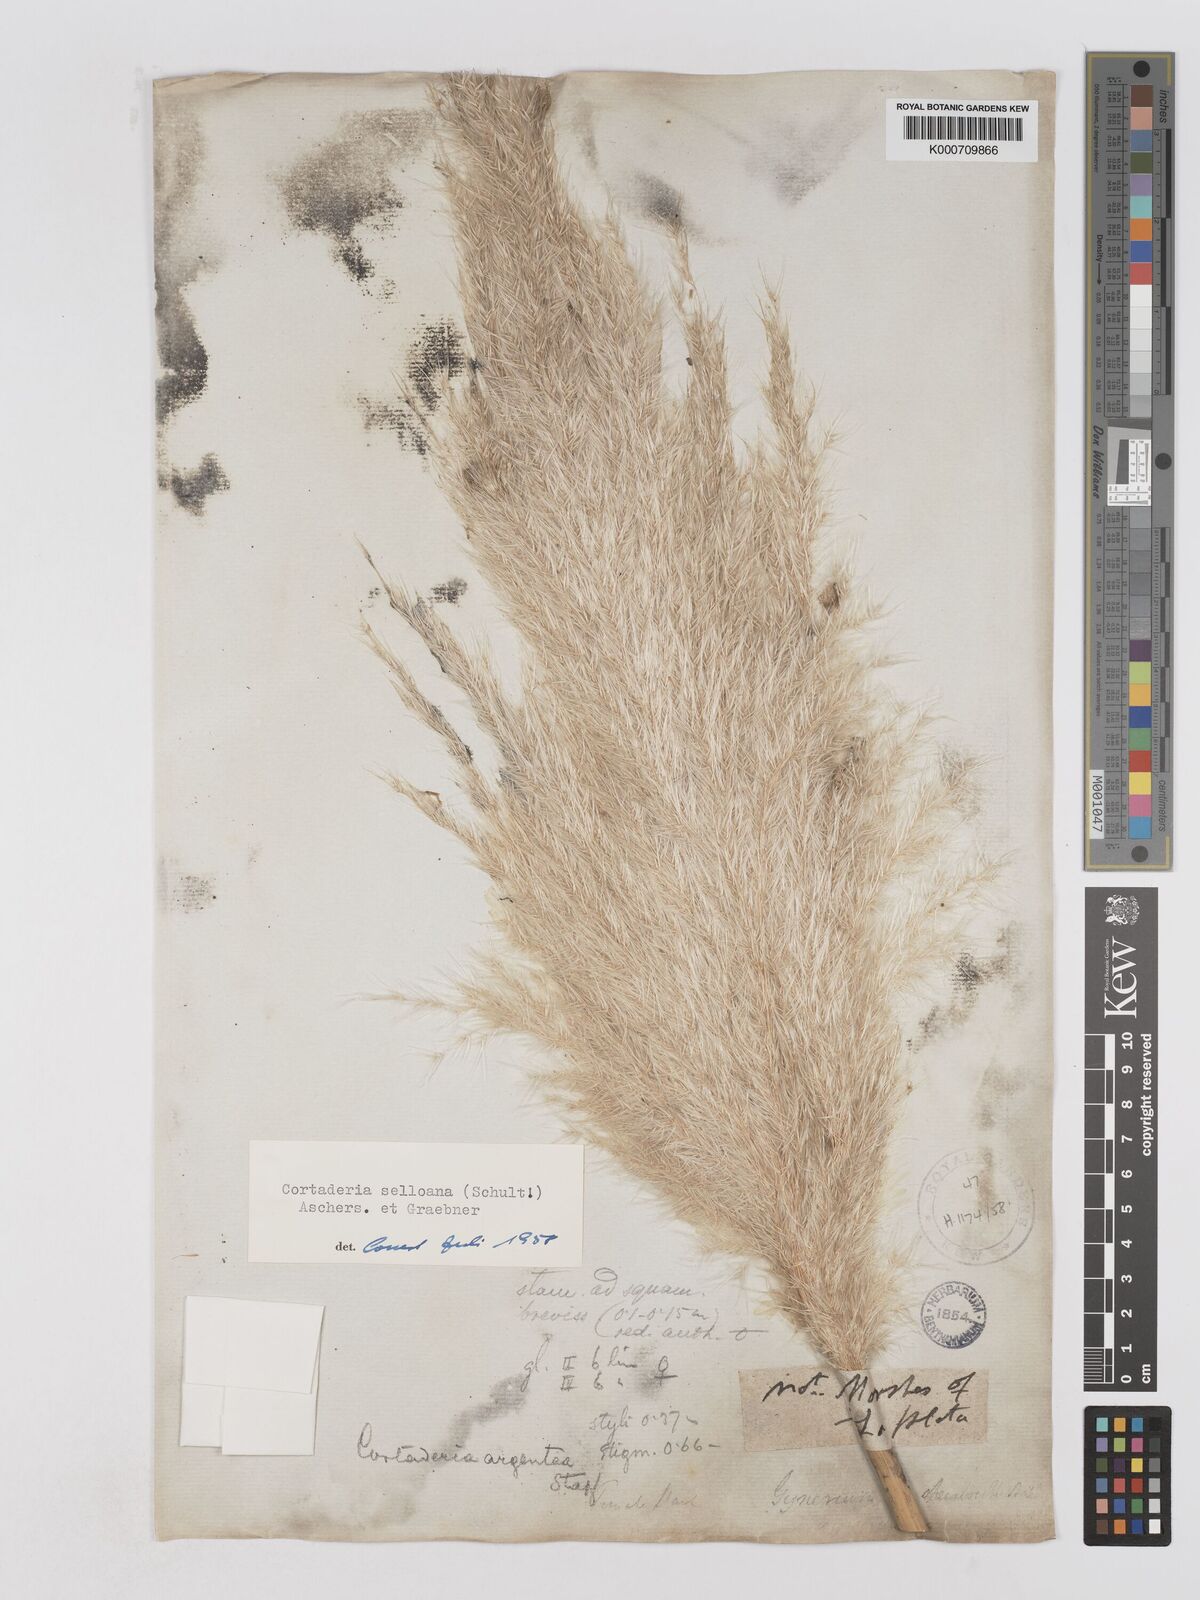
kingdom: Plantae
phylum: Tracheophyta
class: Liliopsida
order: Poales
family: Poaceae
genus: Cortaderia
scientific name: Cortaderia selloana
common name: Uruguayan pampas grass
